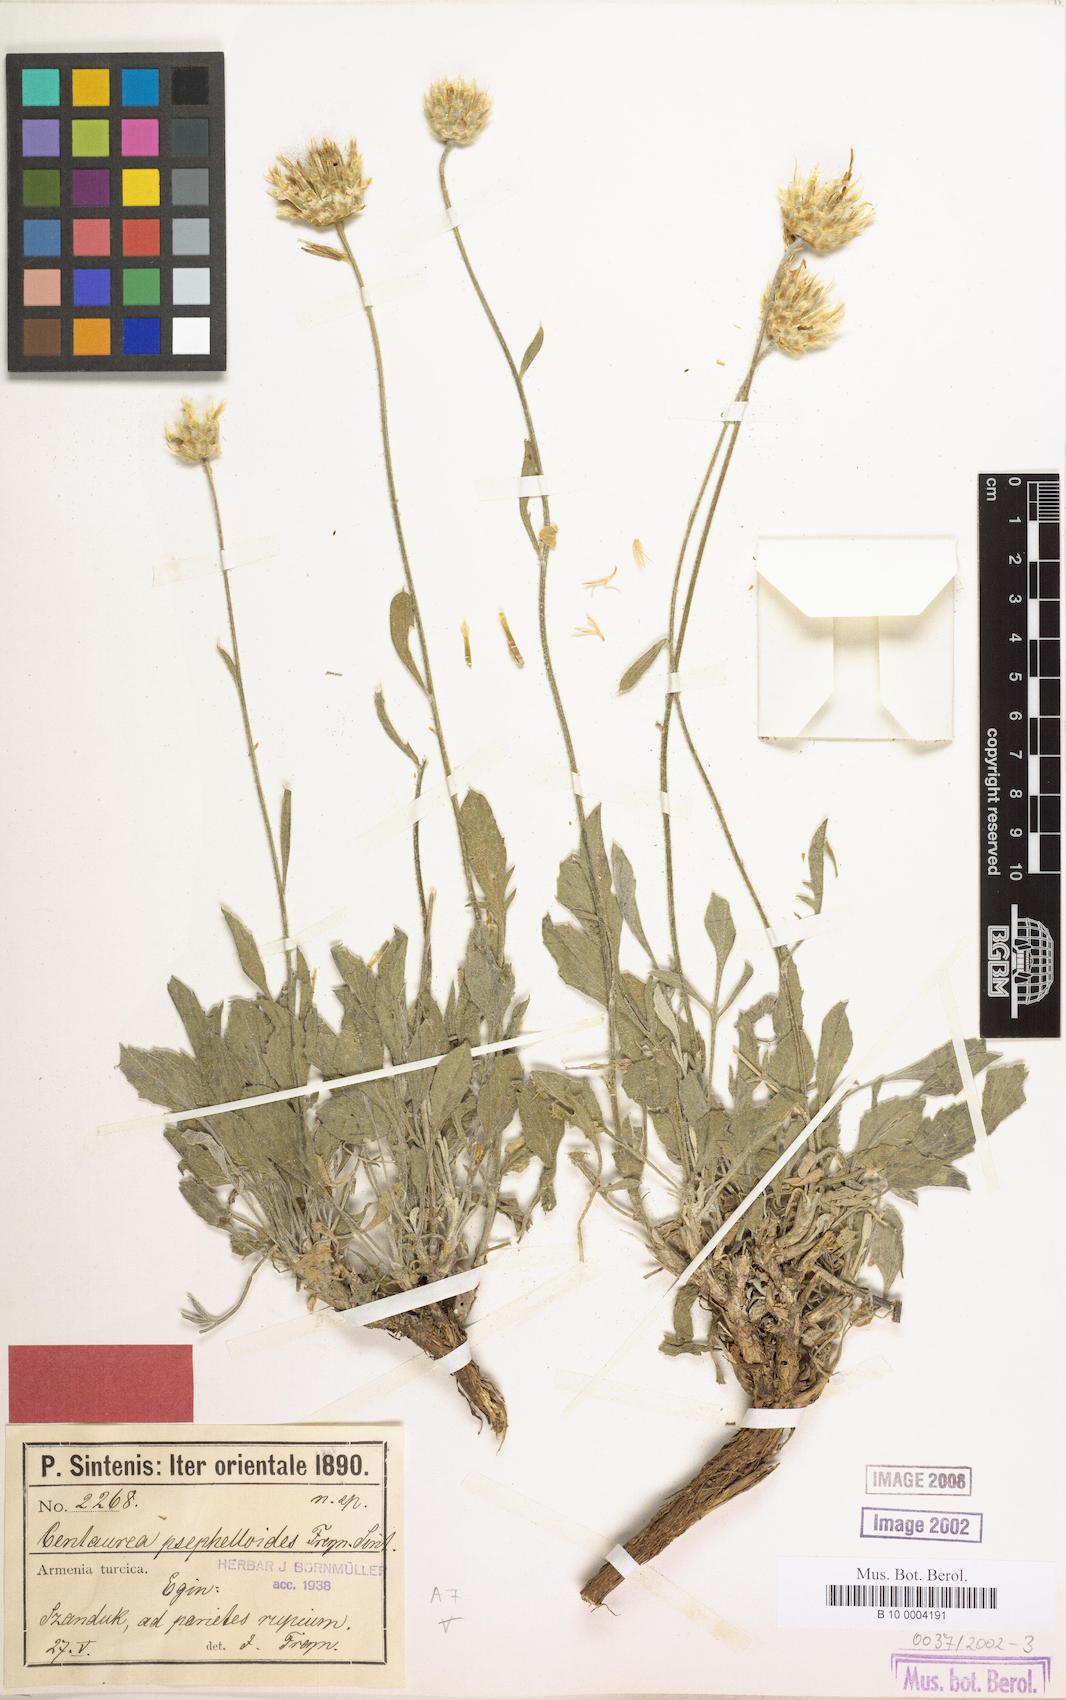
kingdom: Plantae
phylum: Tracheophyta
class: Magnoliopsida
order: Asterales
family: Asteraceae
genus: Psephellus
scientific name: Psephellus psephelloides
